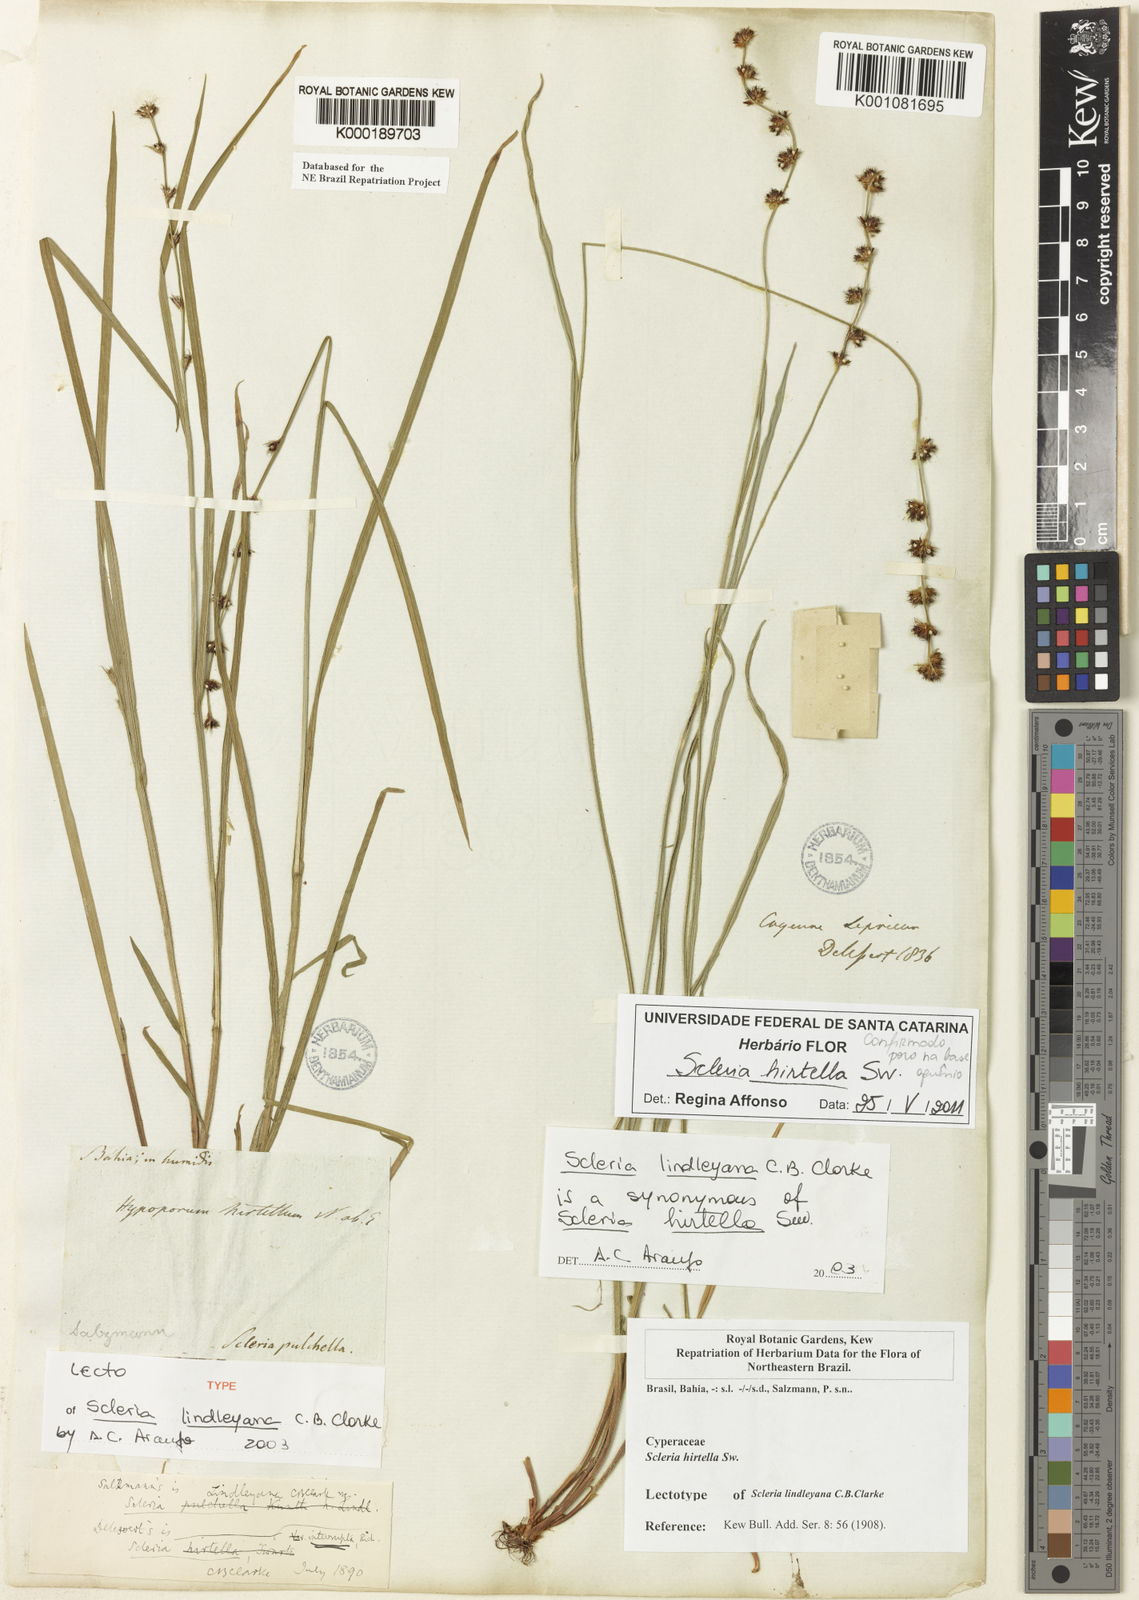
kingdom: Plantae
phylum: Tracheophyta
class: Liliopsida
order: Poales
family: Cyperaceae
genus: Scleria
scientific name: Scleria hirtella
